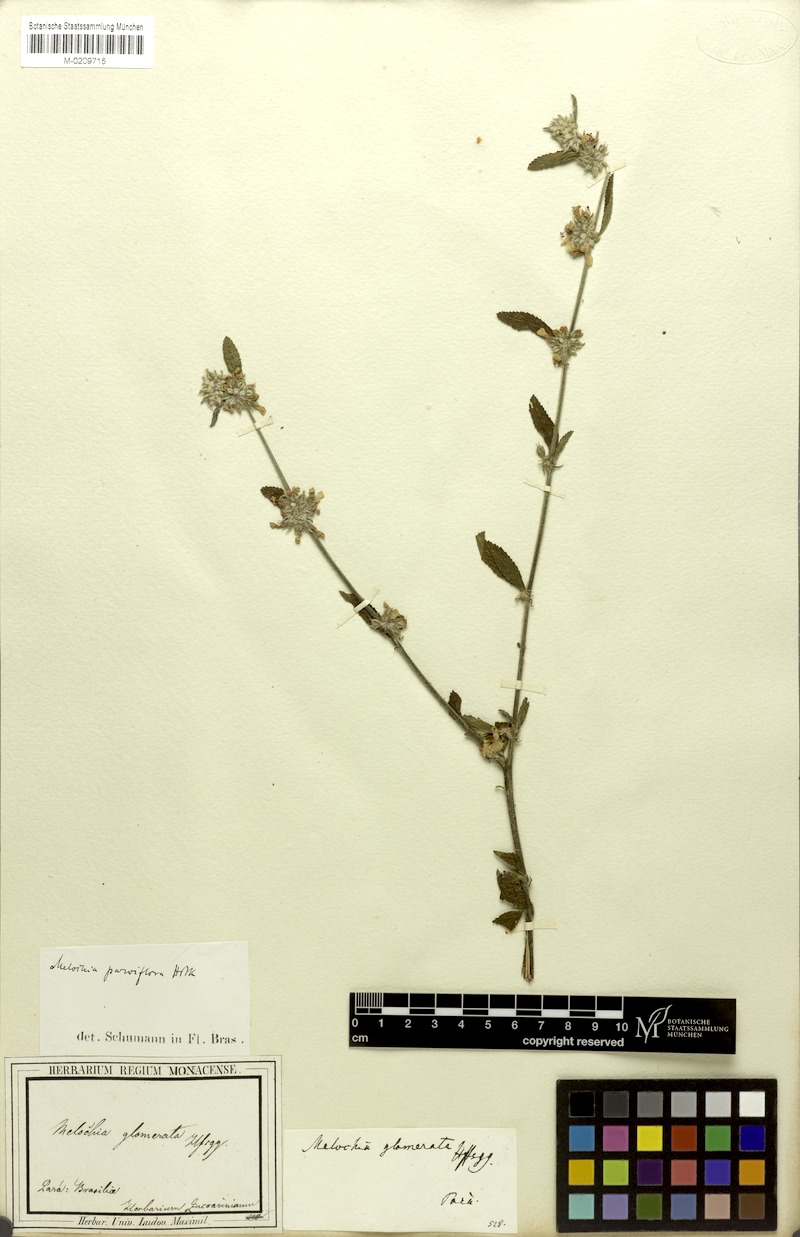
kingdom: Plantae
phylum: Tracheophyta
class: Magnoliopsida
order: Malvales
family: Malvaceae
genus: Melochia
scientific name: Melochia parvifolia
